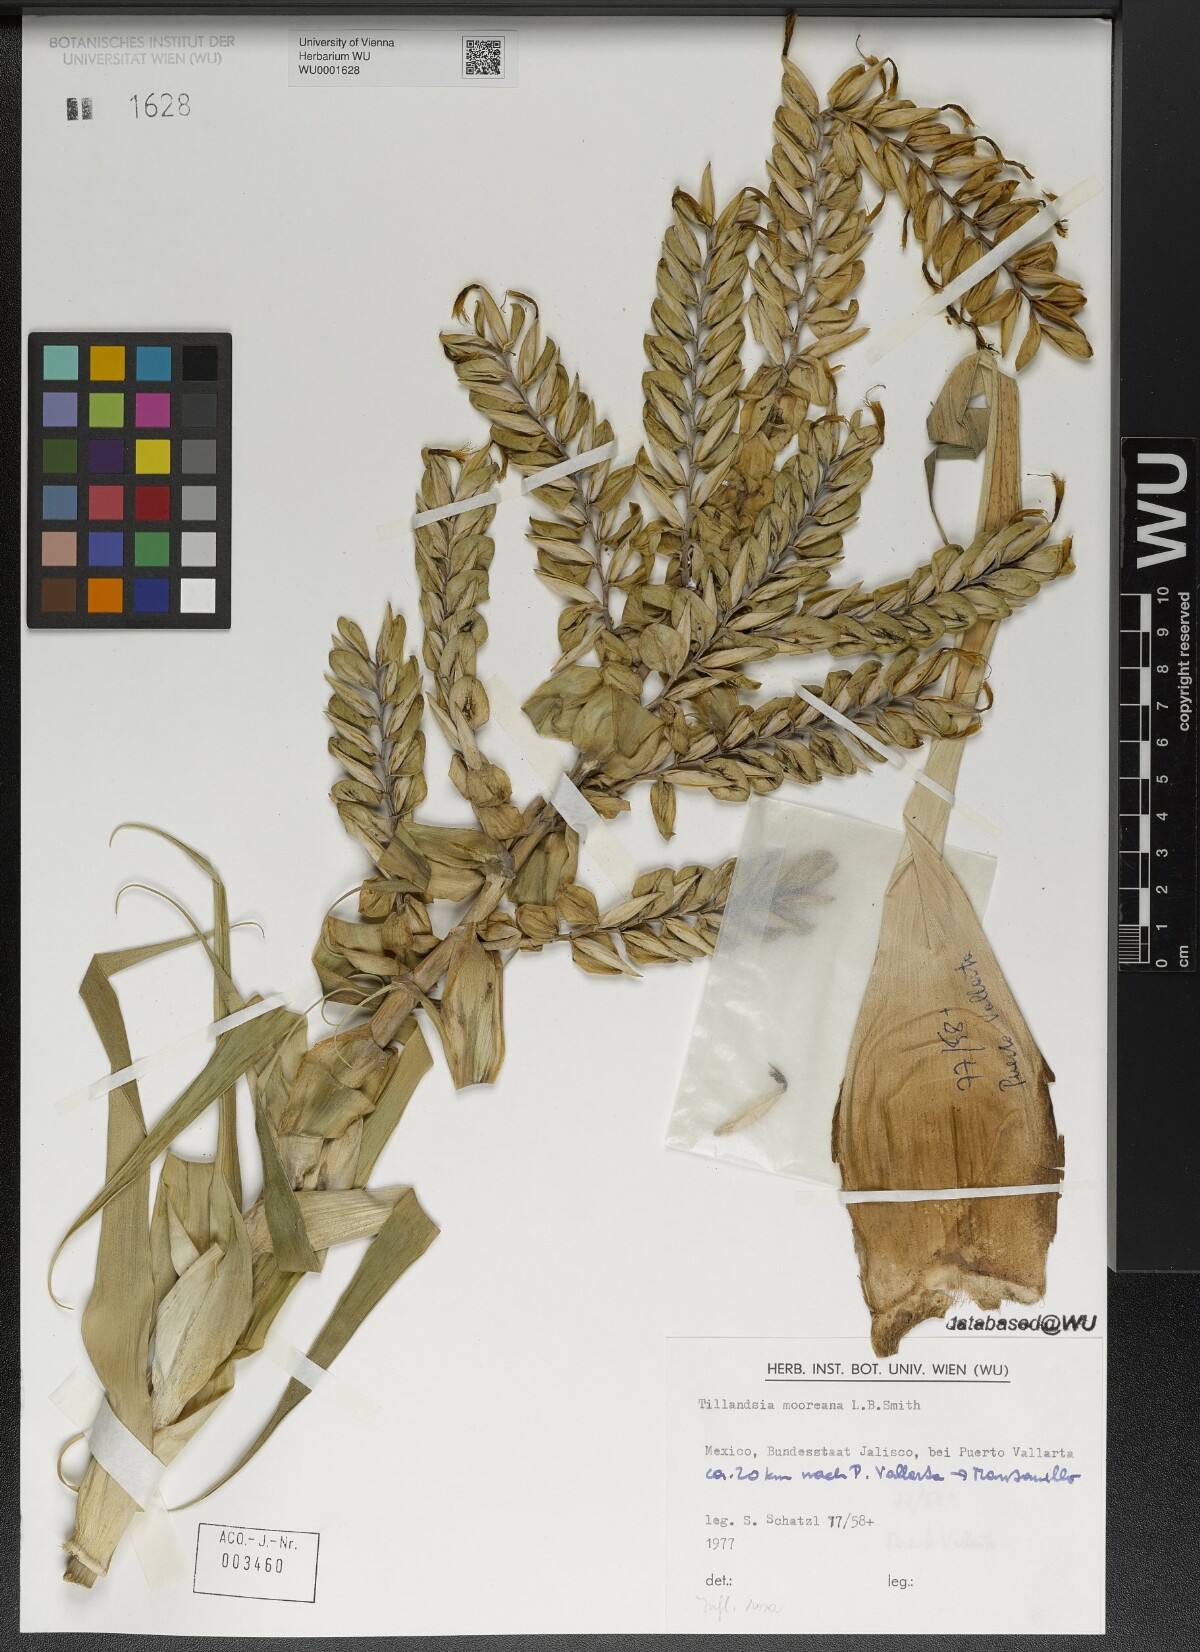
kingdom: Plantae
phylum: Tracheophyta
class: Liliopsida
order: Poales
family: Bromeliaceae
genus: Tillandsia
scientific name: Tillandsia mooreana
